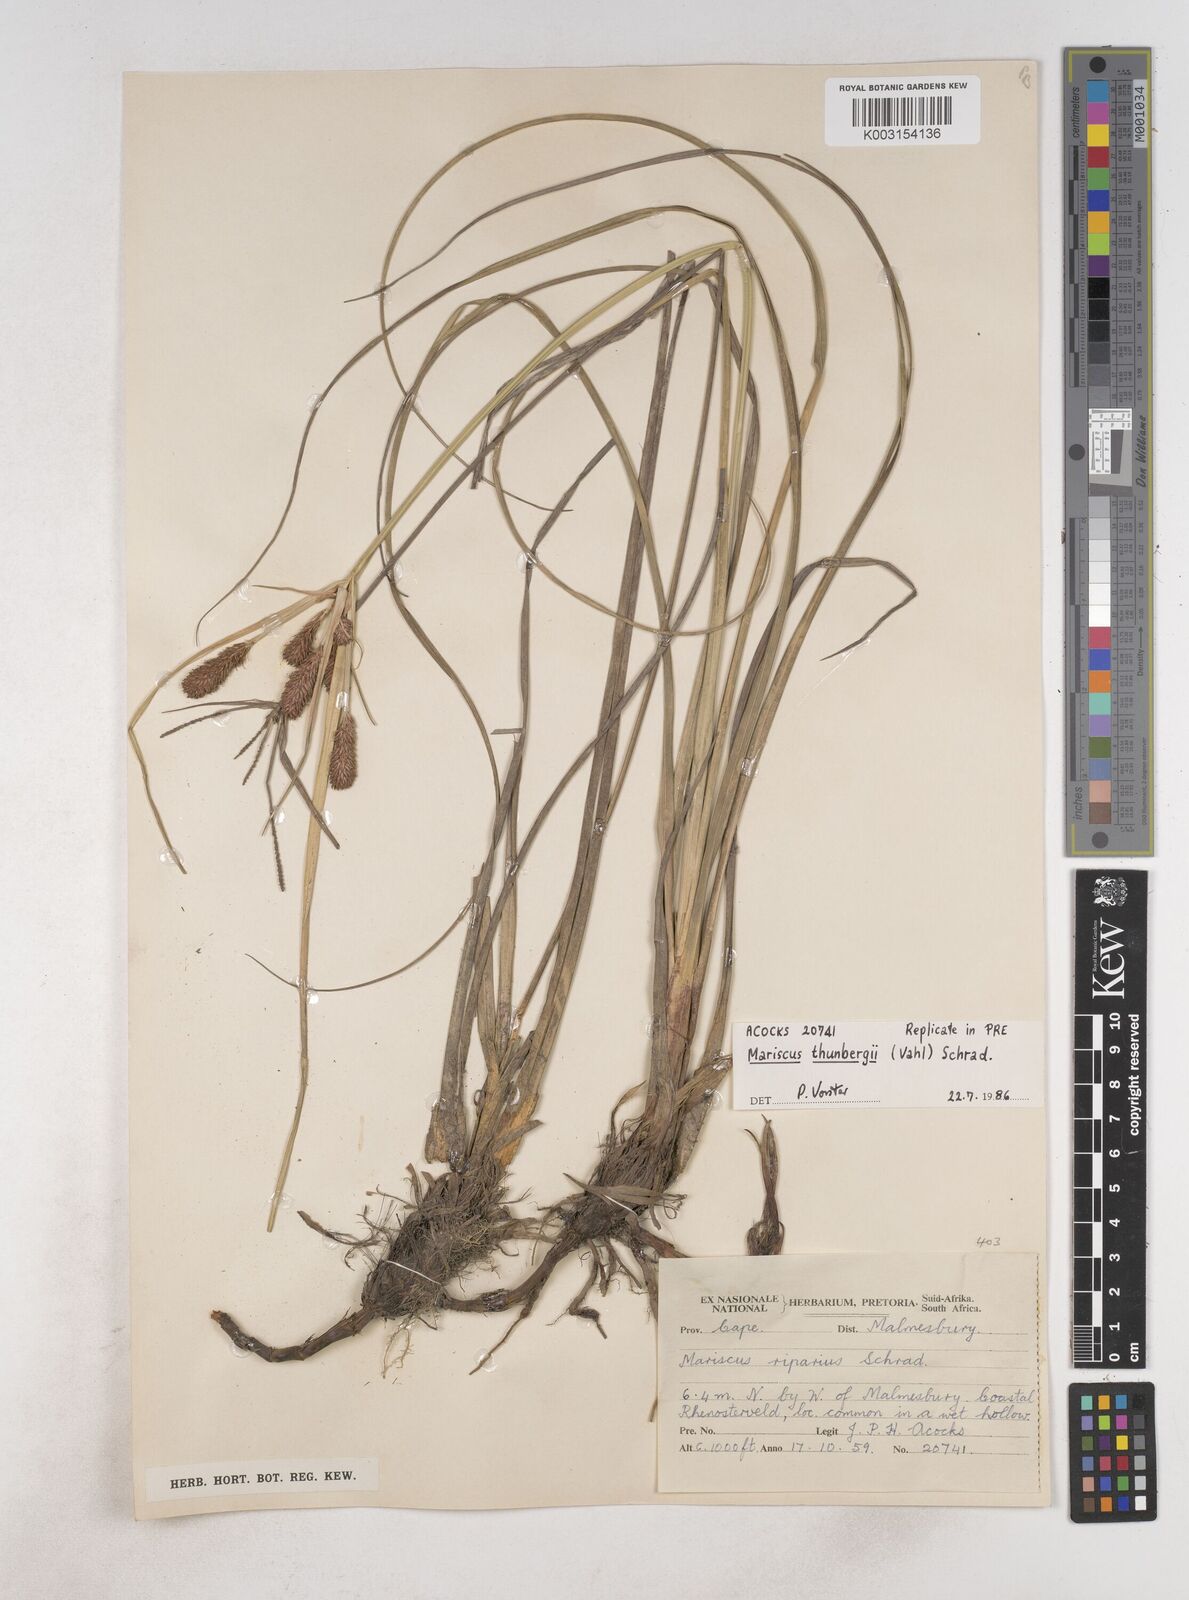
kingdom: Plantae
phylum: Tracheophyta
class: Liliopsida
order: Poales
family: Cyperaceae
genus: Cyperus
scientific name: Cyperus thunbergii
